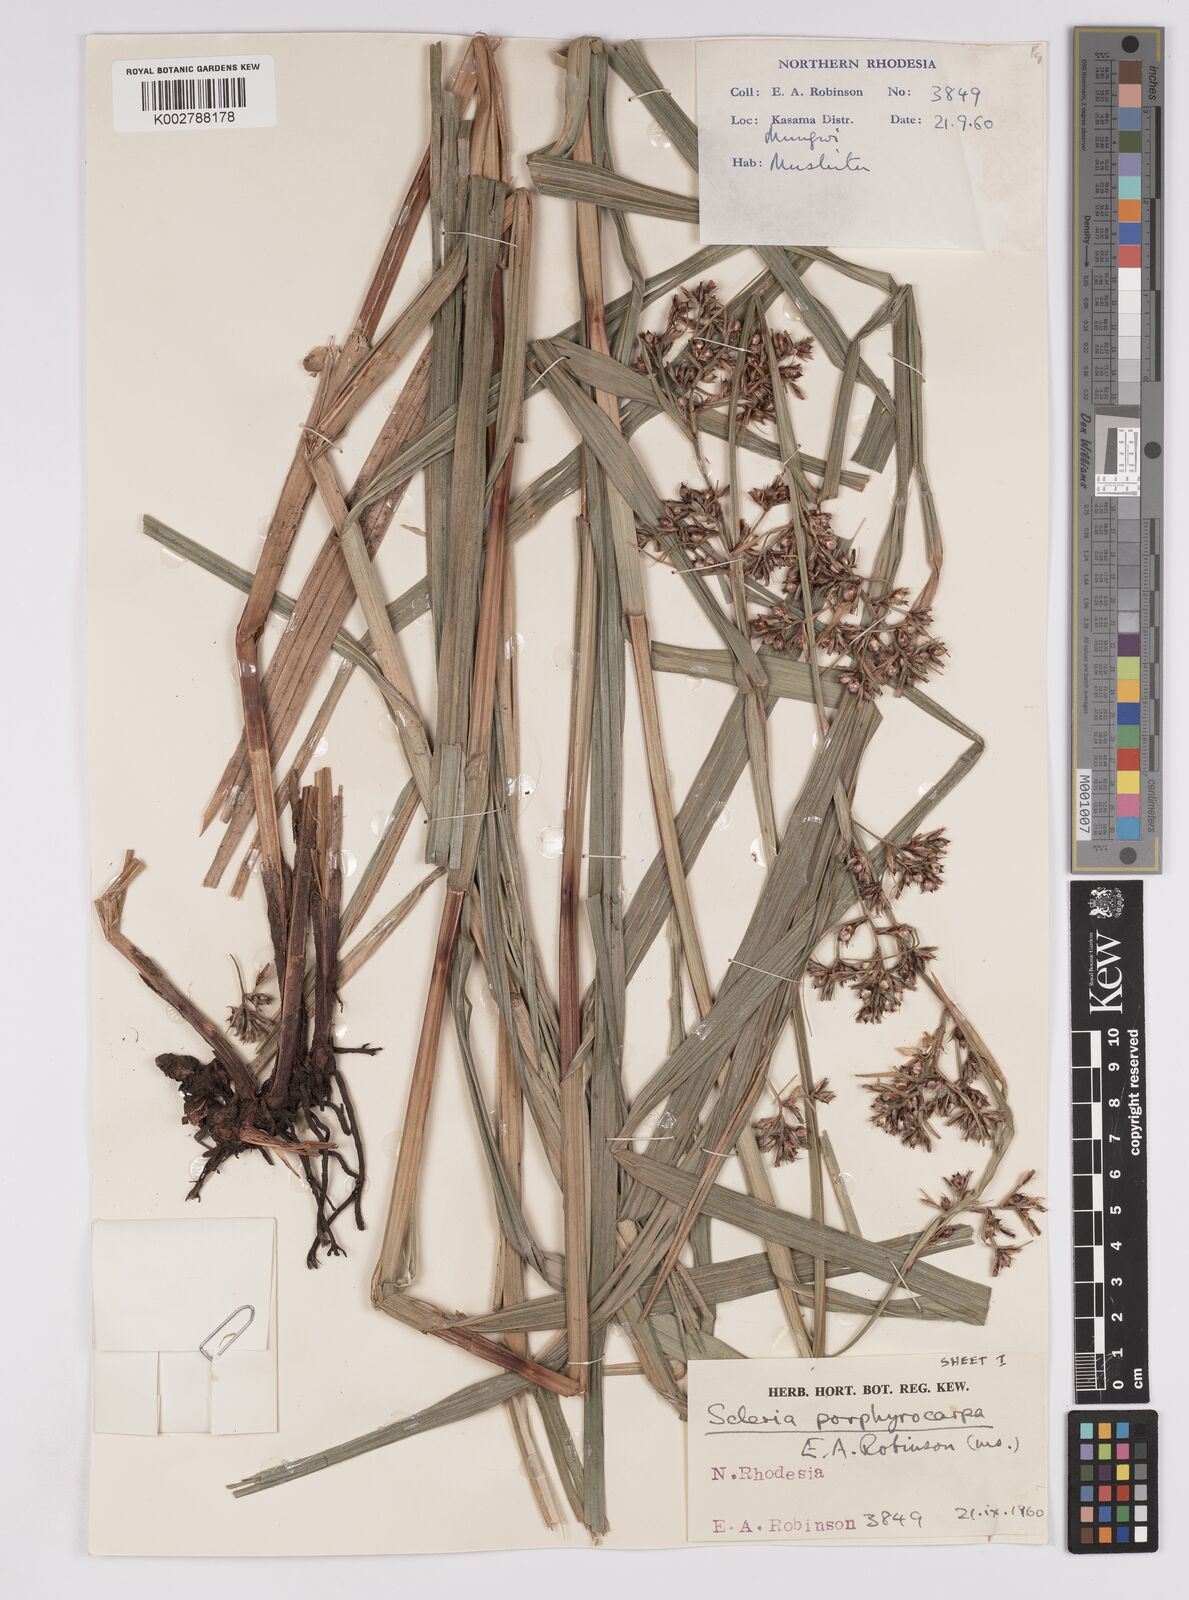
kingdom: Plantae
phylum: Tracheophyta
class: Liliopsida
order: Poales
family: Cyperaceae
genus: Scleria
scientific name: Scleria porphyrocarpa
